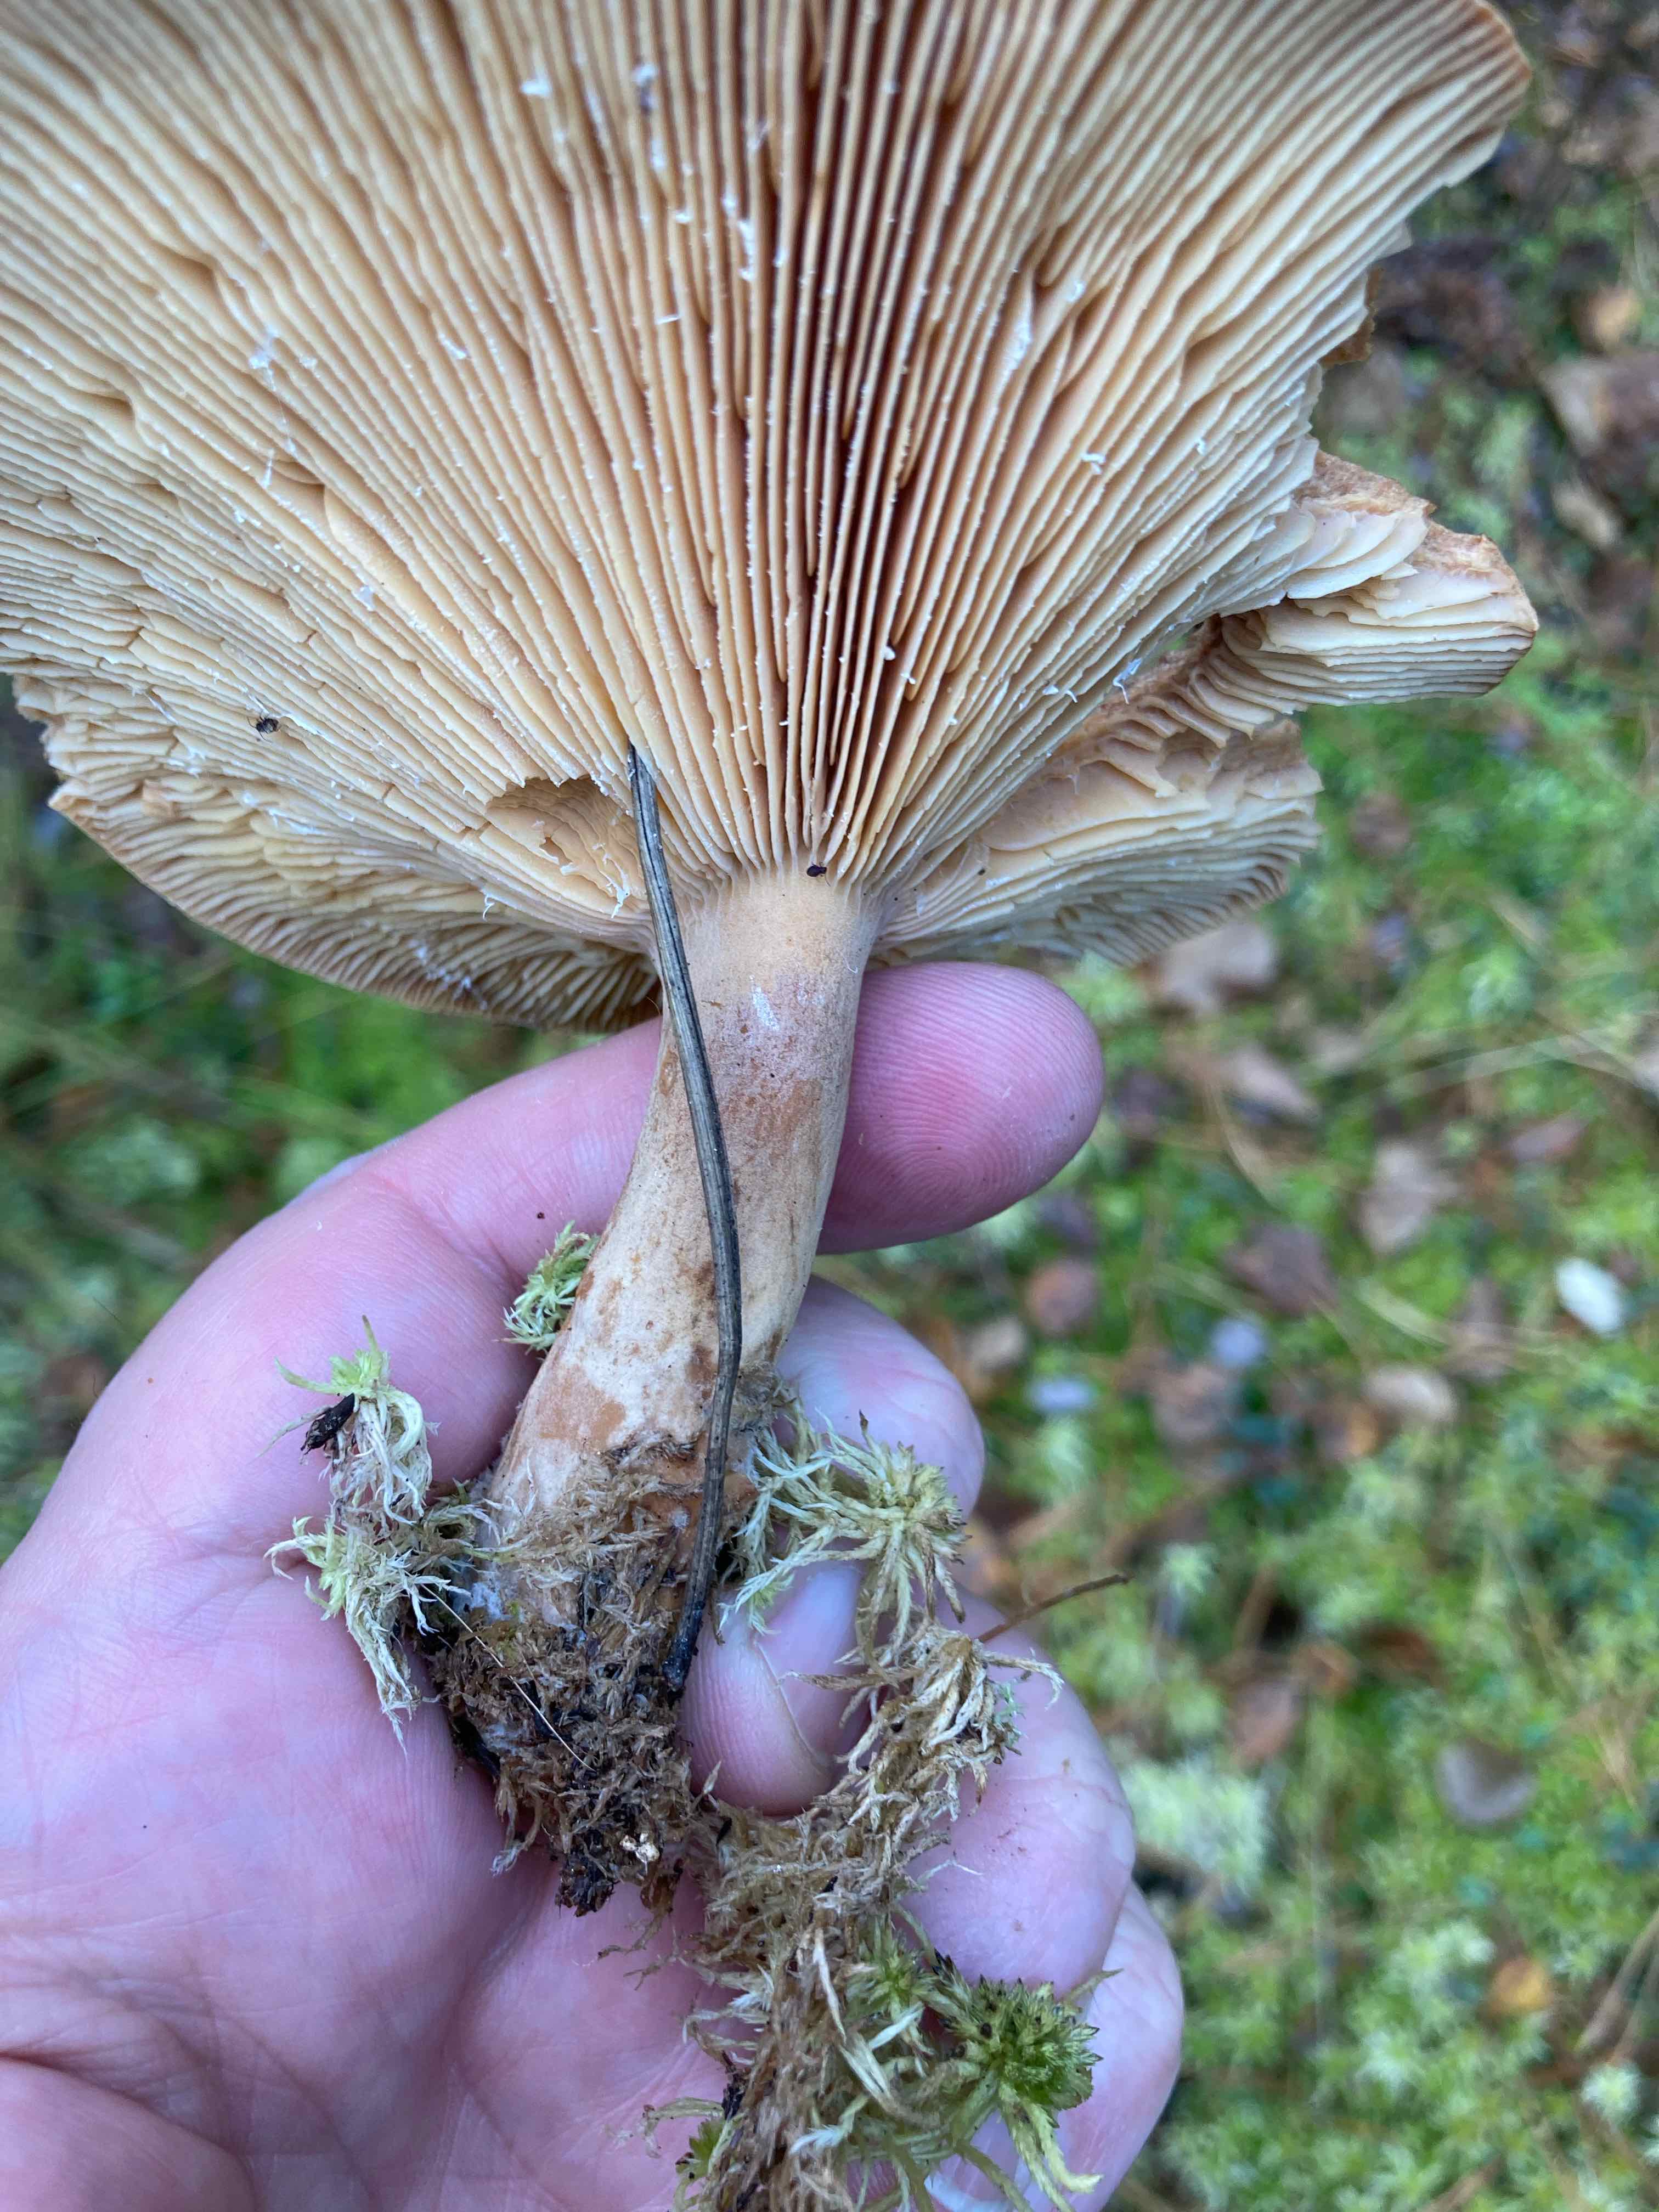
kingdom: Fungi
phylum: Basidiomycota
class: Agaricomycetes
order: Russulales
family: Russulaceae
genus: Lactarius
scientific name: Lactarius helvus
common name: mose-mælkehat
